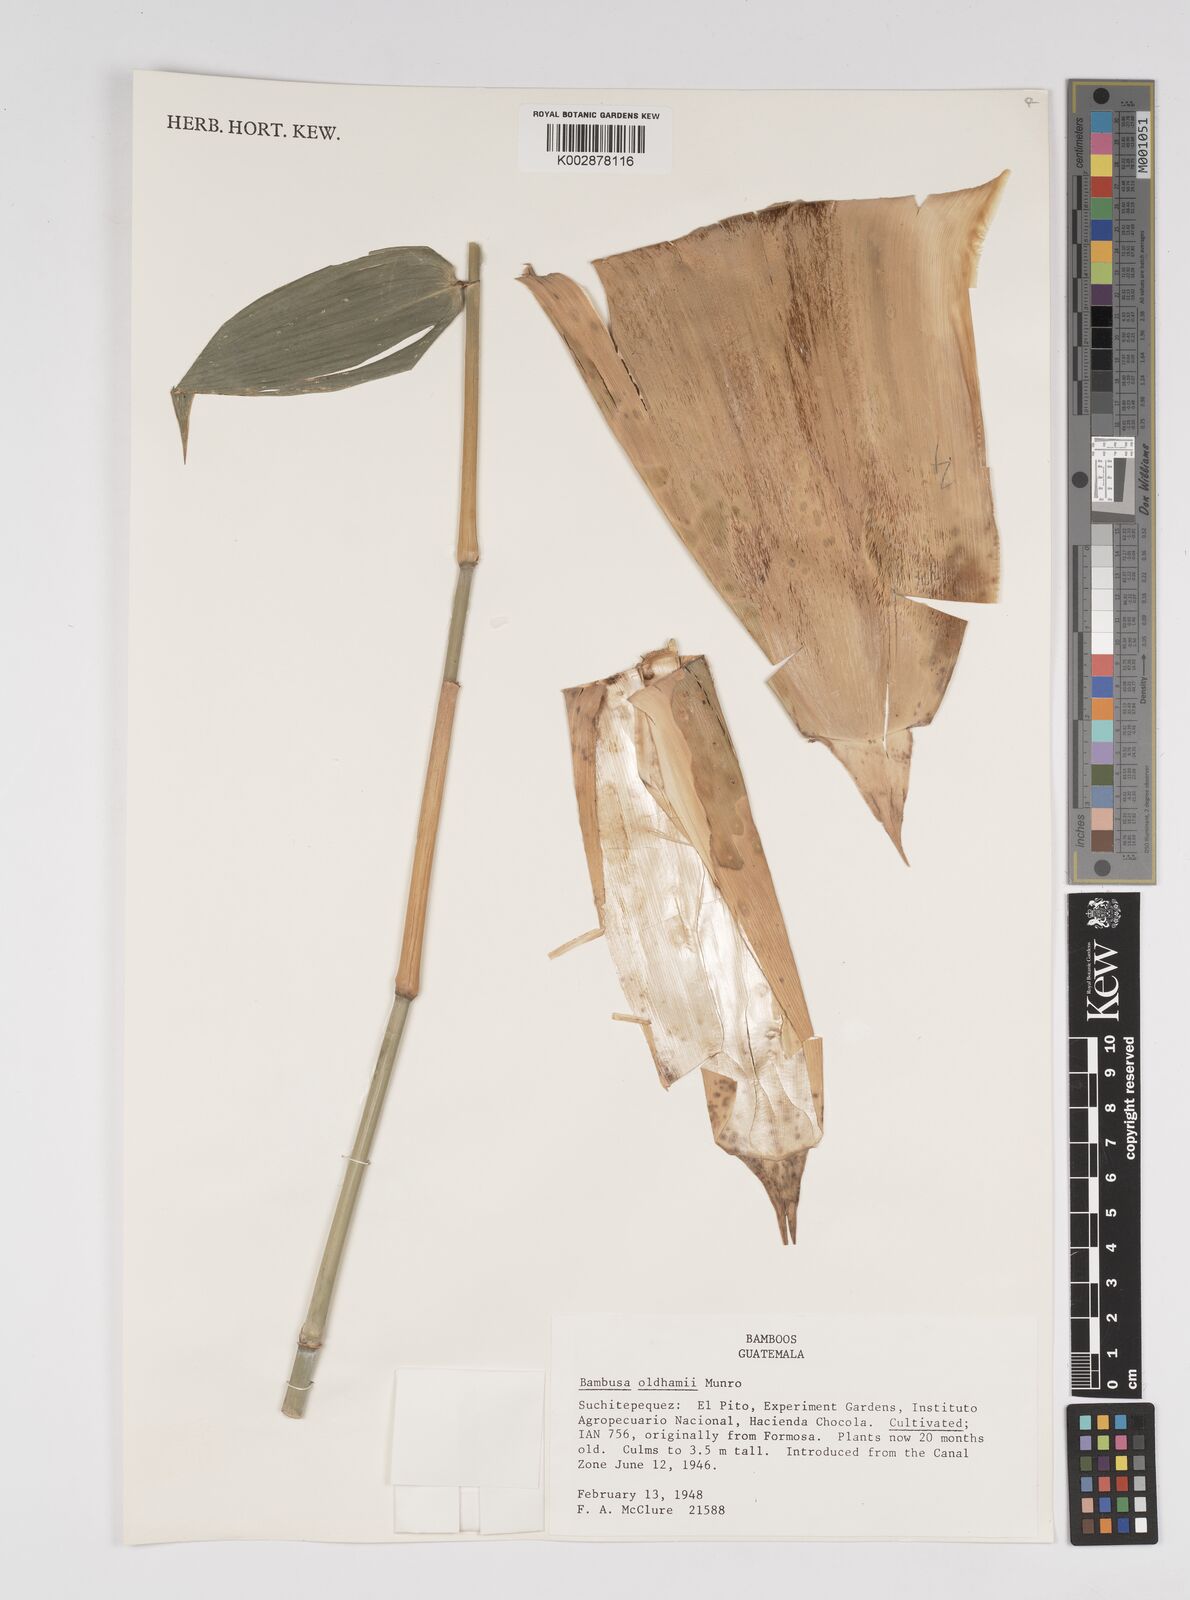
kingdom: Plantae
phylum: Tracheophyta
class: Liliopsida
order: Poales
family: Poaceae
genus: Bambusa
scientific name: Bambusa oldhamii
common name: Giant timber bamboo
